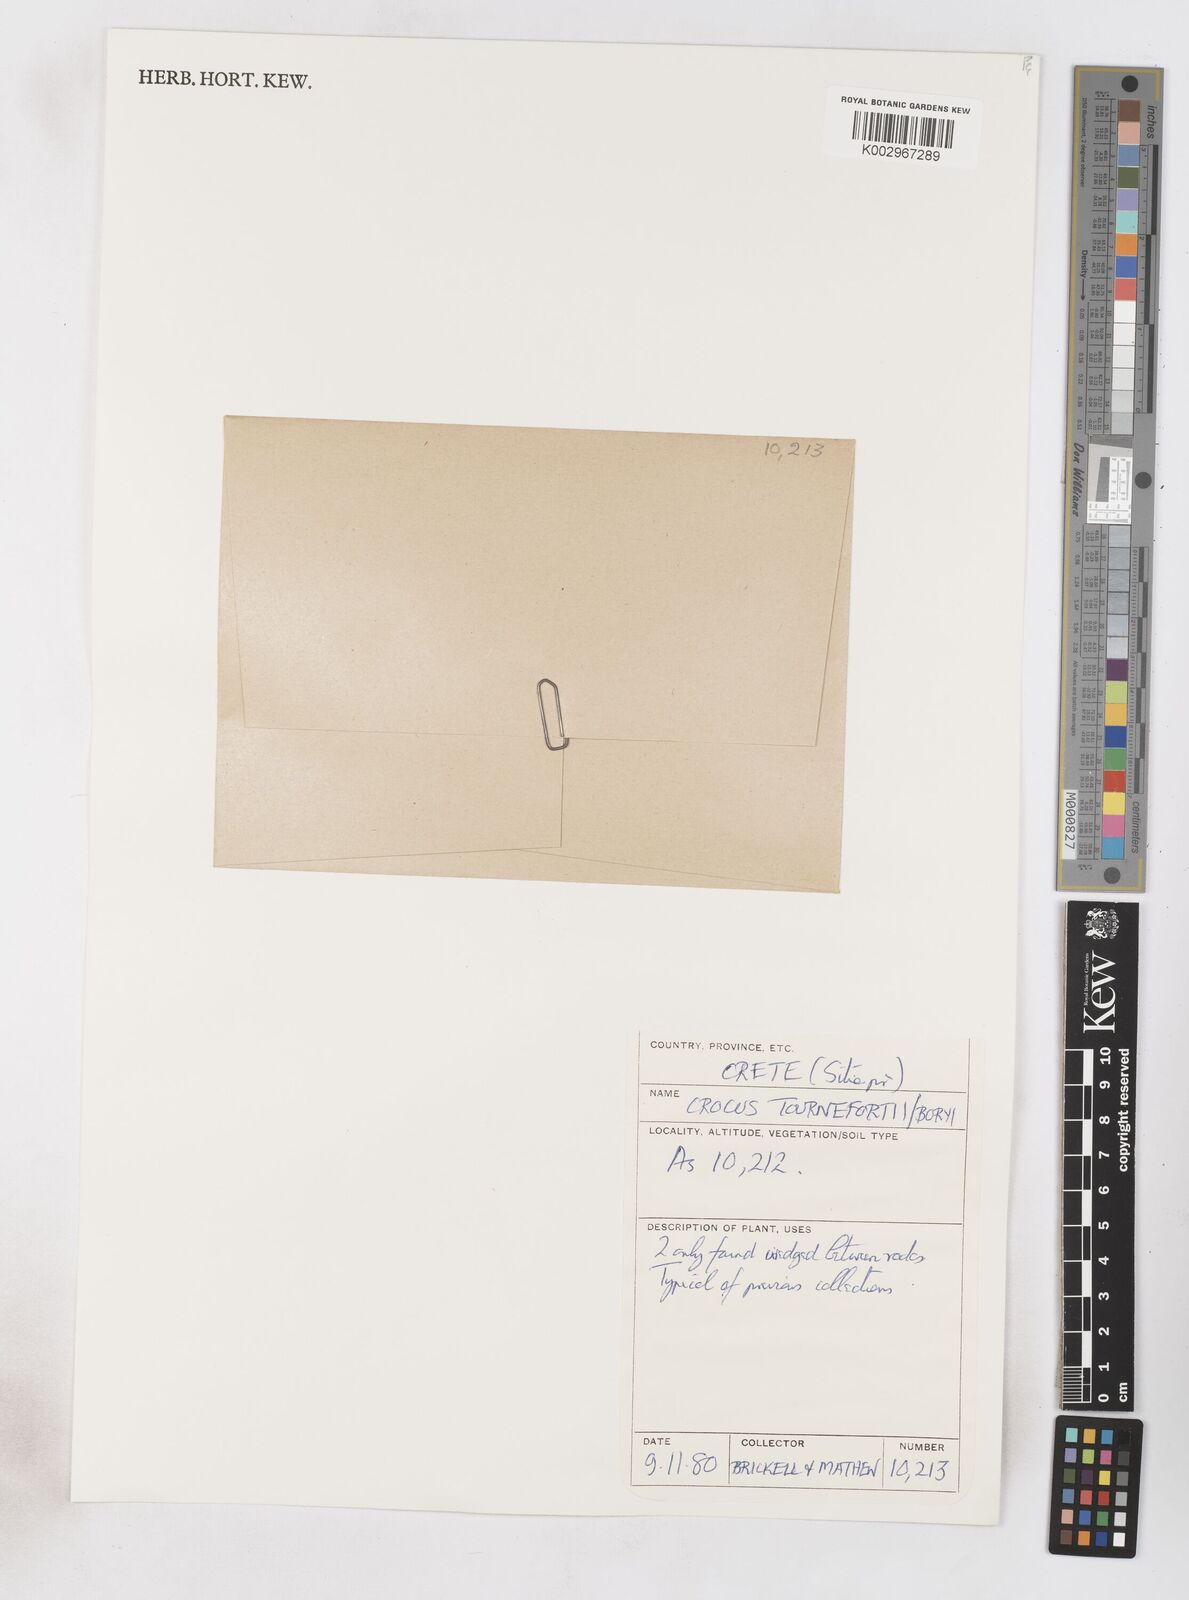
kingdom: Plantae
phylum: Tracheophyta
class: Liliopsida
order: Asparagales
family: Iridaceae
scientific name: Iridaceae
